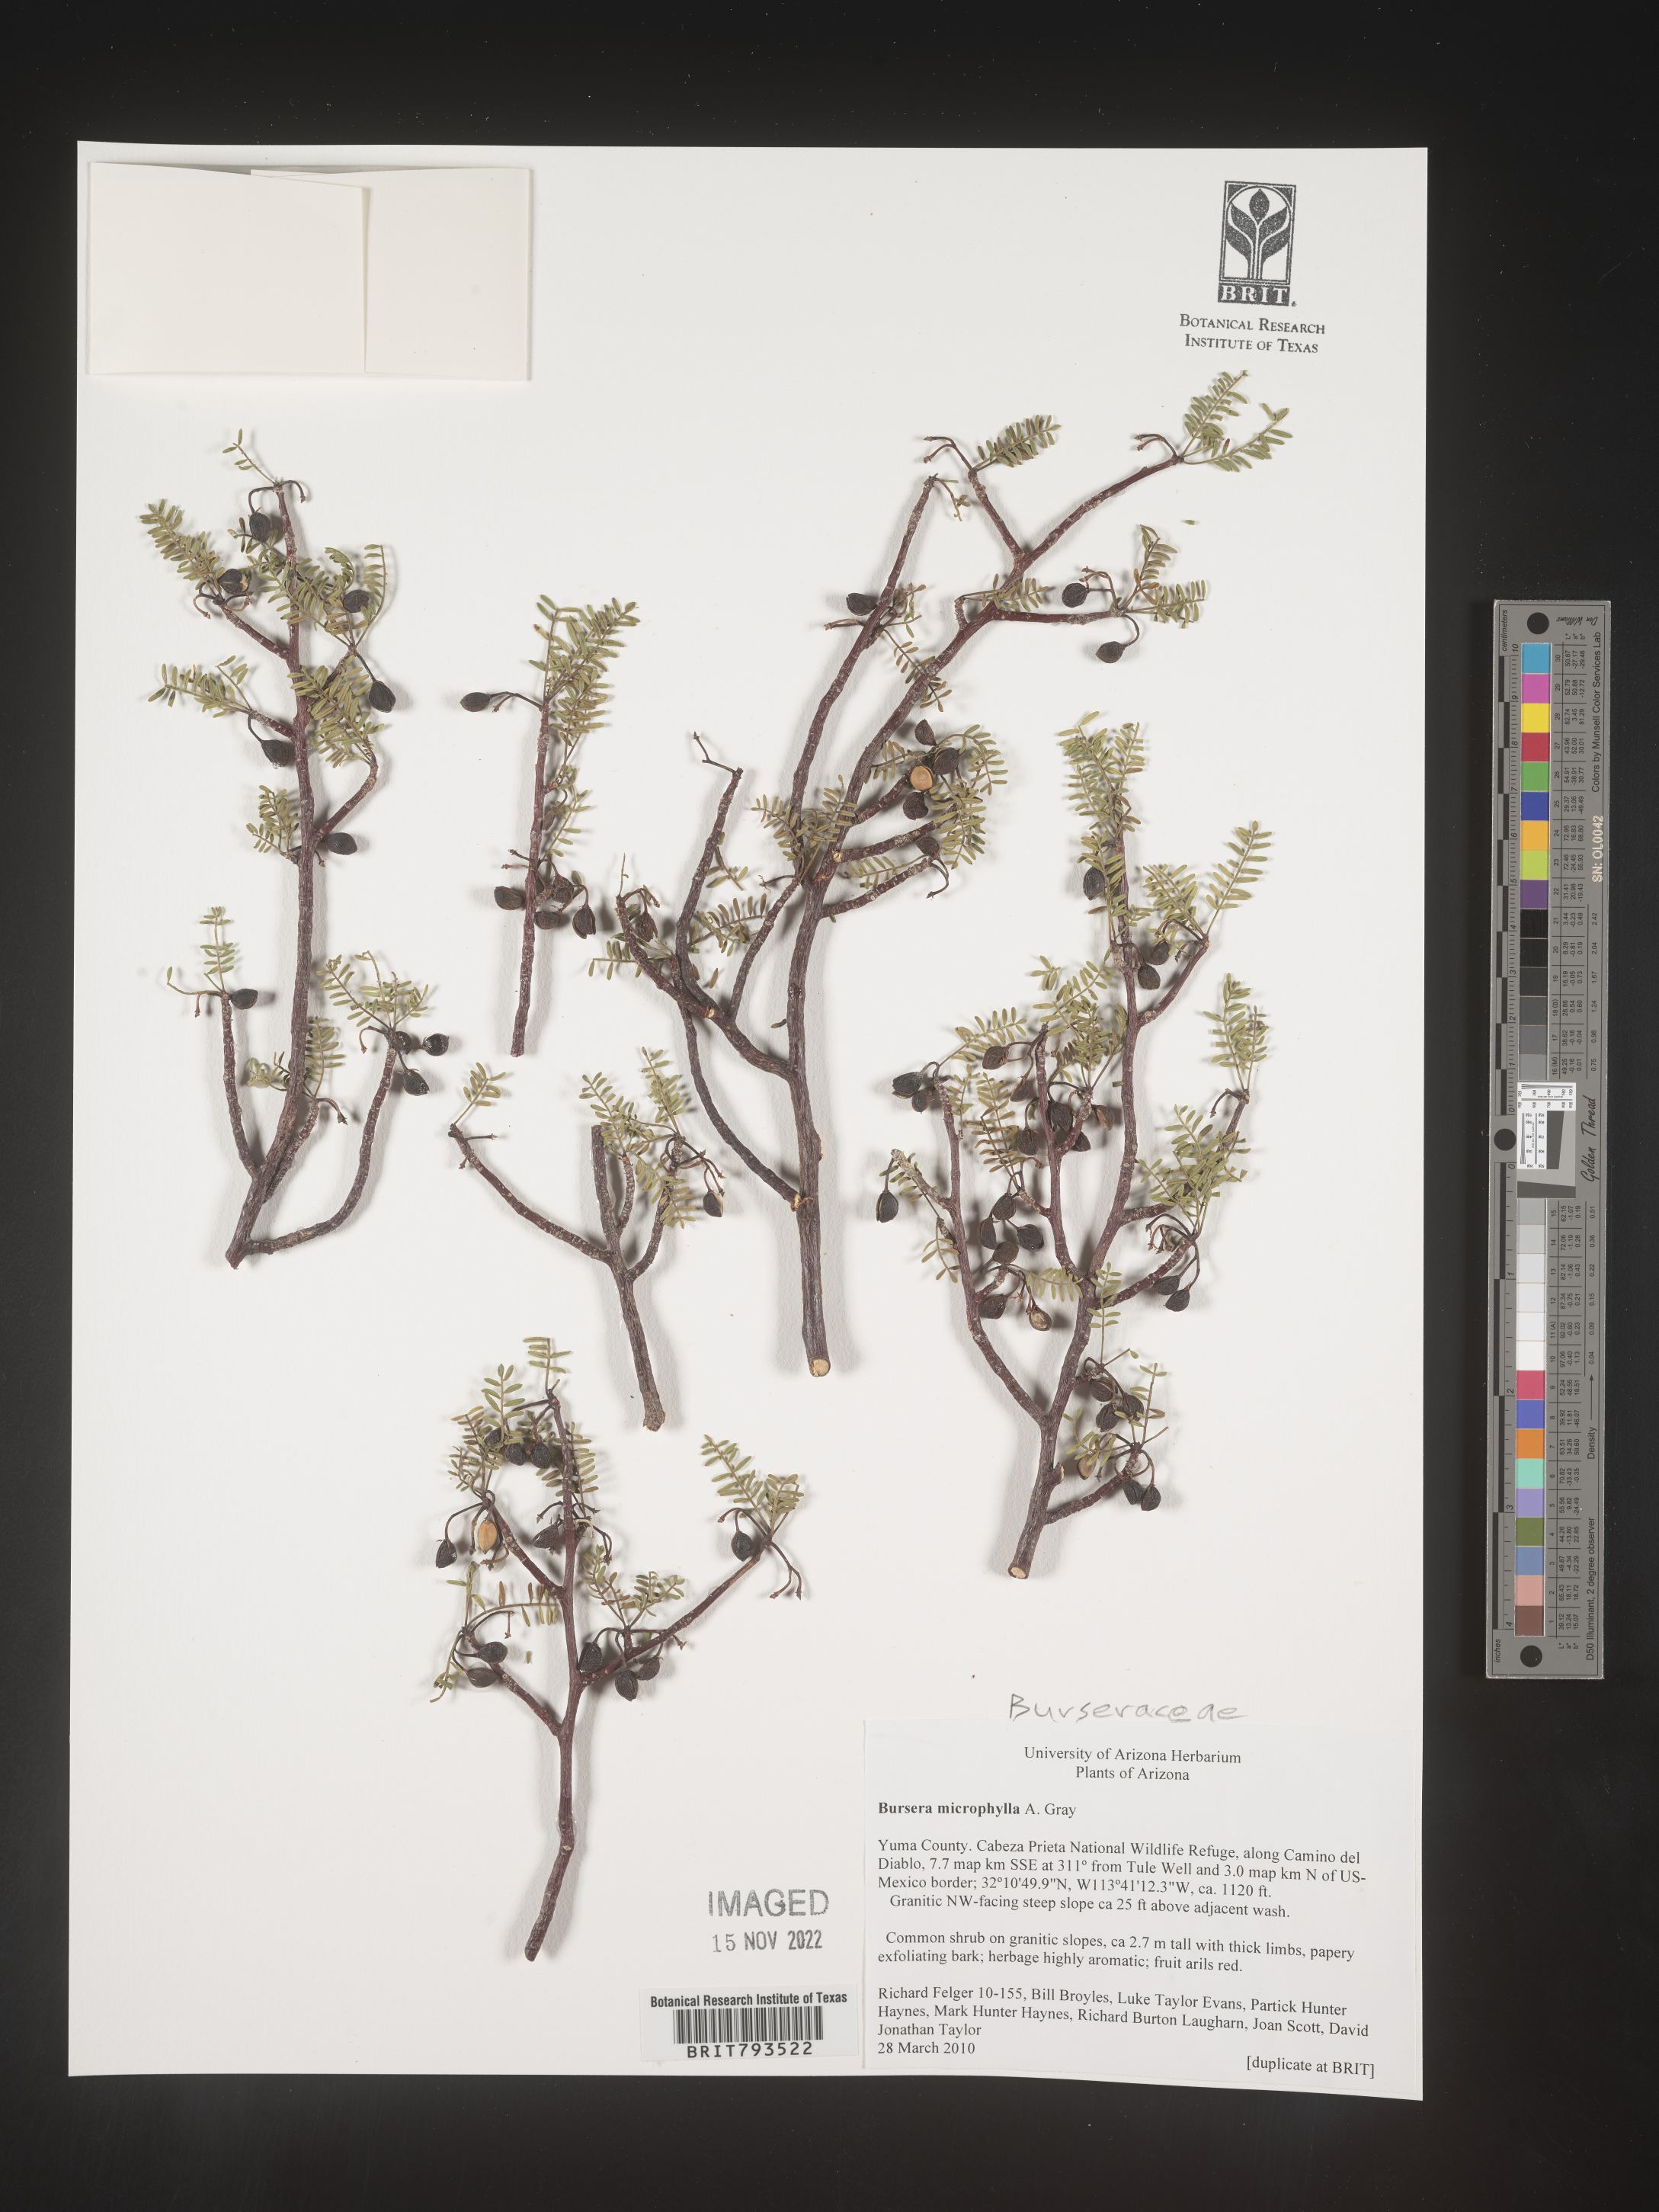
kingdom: Plantae
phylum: Tracheophyta
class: Magnoliopsida
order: Sapindales
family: Burseraceae
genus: Bursera
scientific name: Bursera microphylla
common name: Elephant tree
